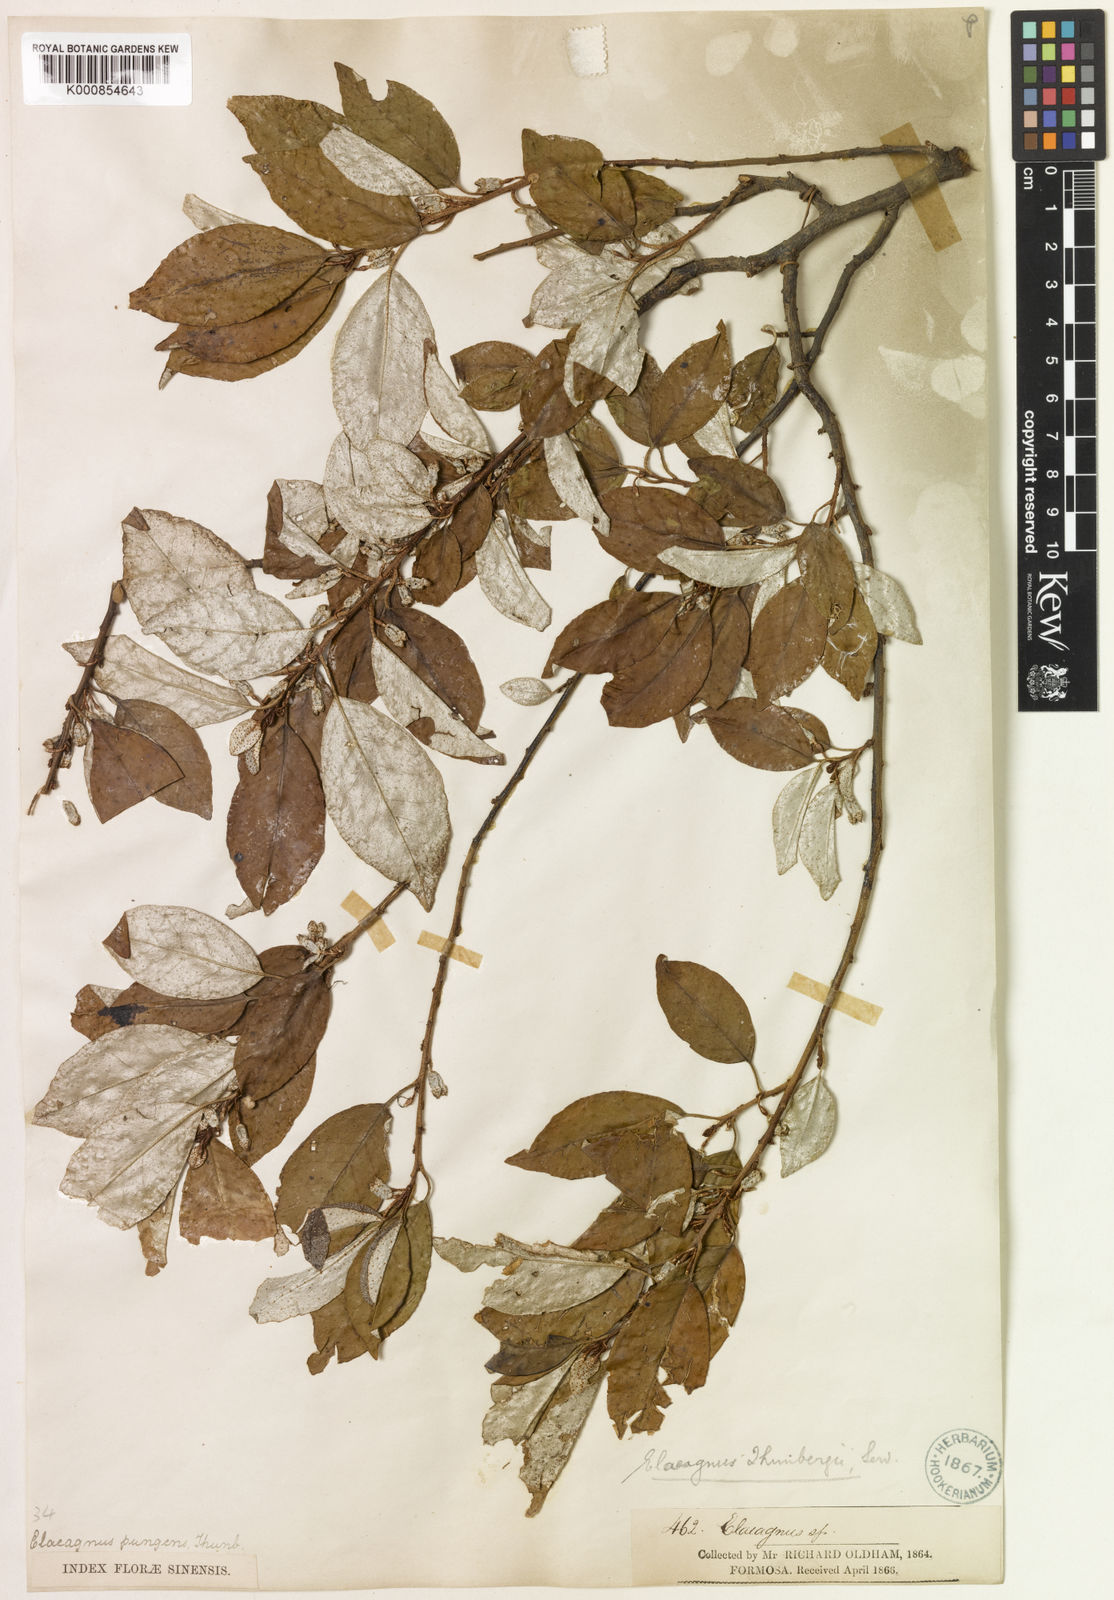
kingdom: Plantae
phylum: Tracheophyta
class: Magnoliopsida
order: Rosales
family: Elaeagnaceae
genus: Elaeagnus
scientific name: Elaeagnus thunbergii
